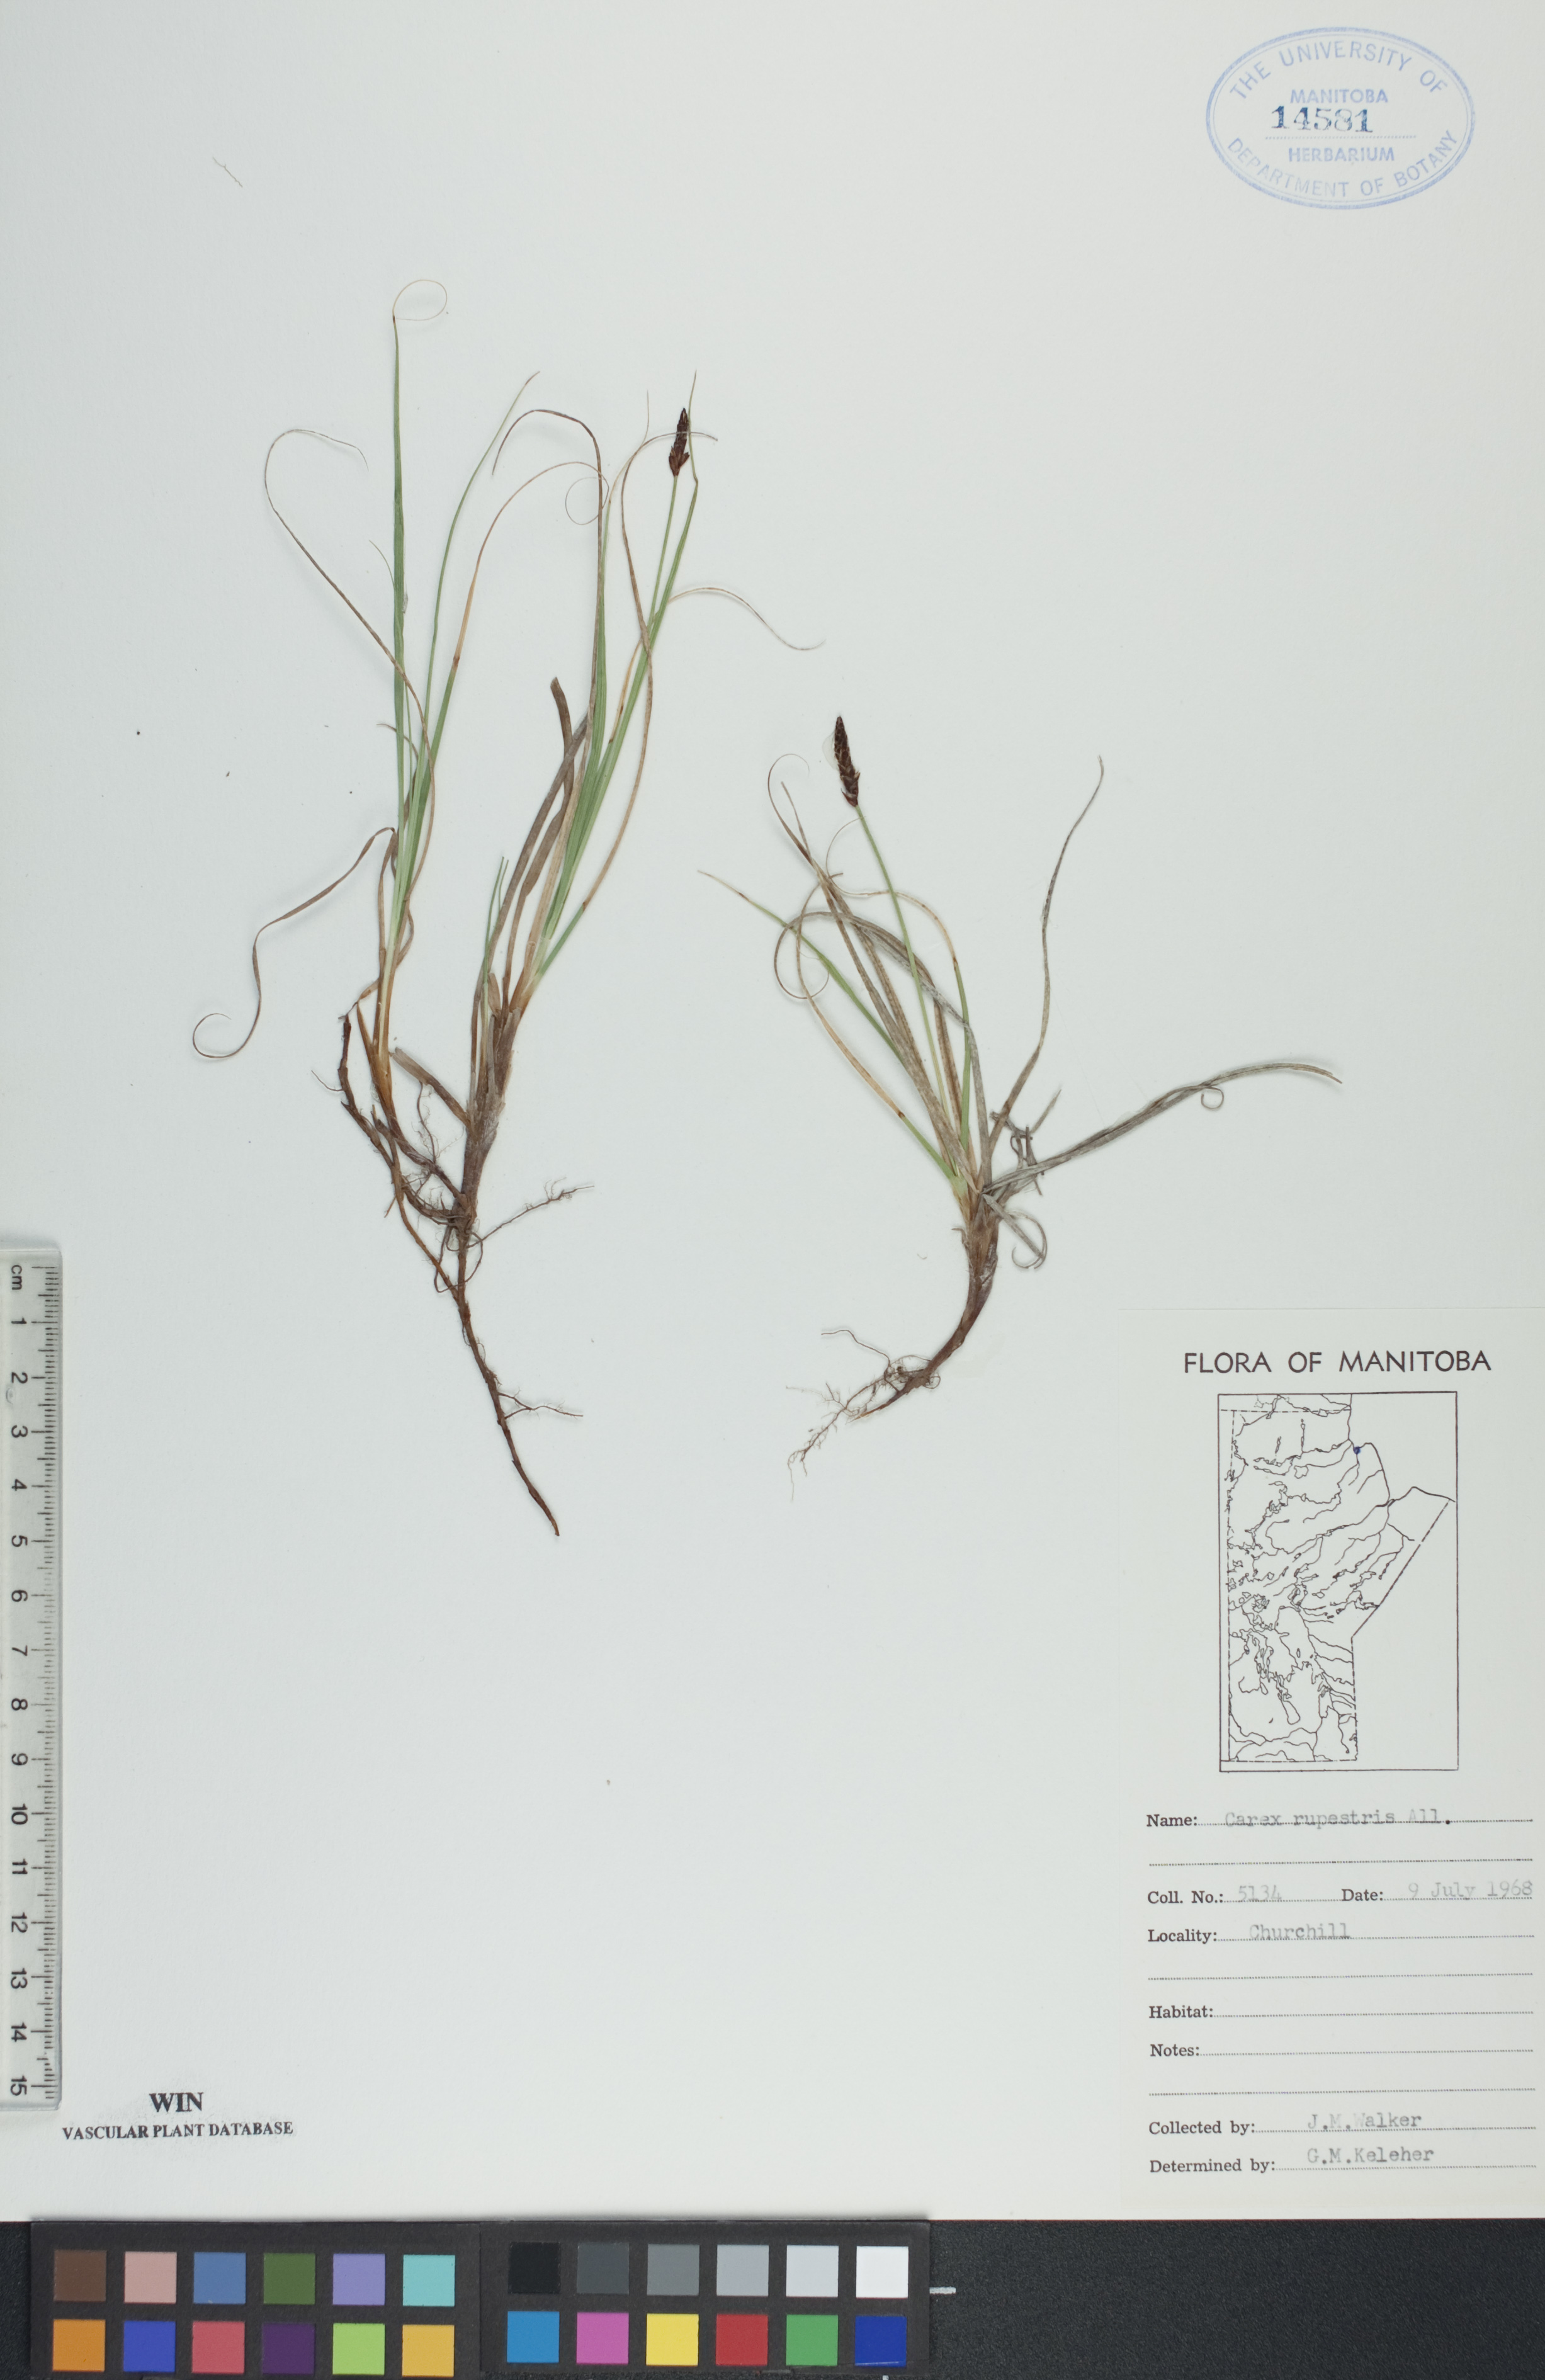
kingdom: Plantae
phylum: Tracheophyta
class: Liliopsida
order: Poales
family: Cyperaceae
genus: Carex
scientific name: Carex rupestris
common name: Rock sedge
